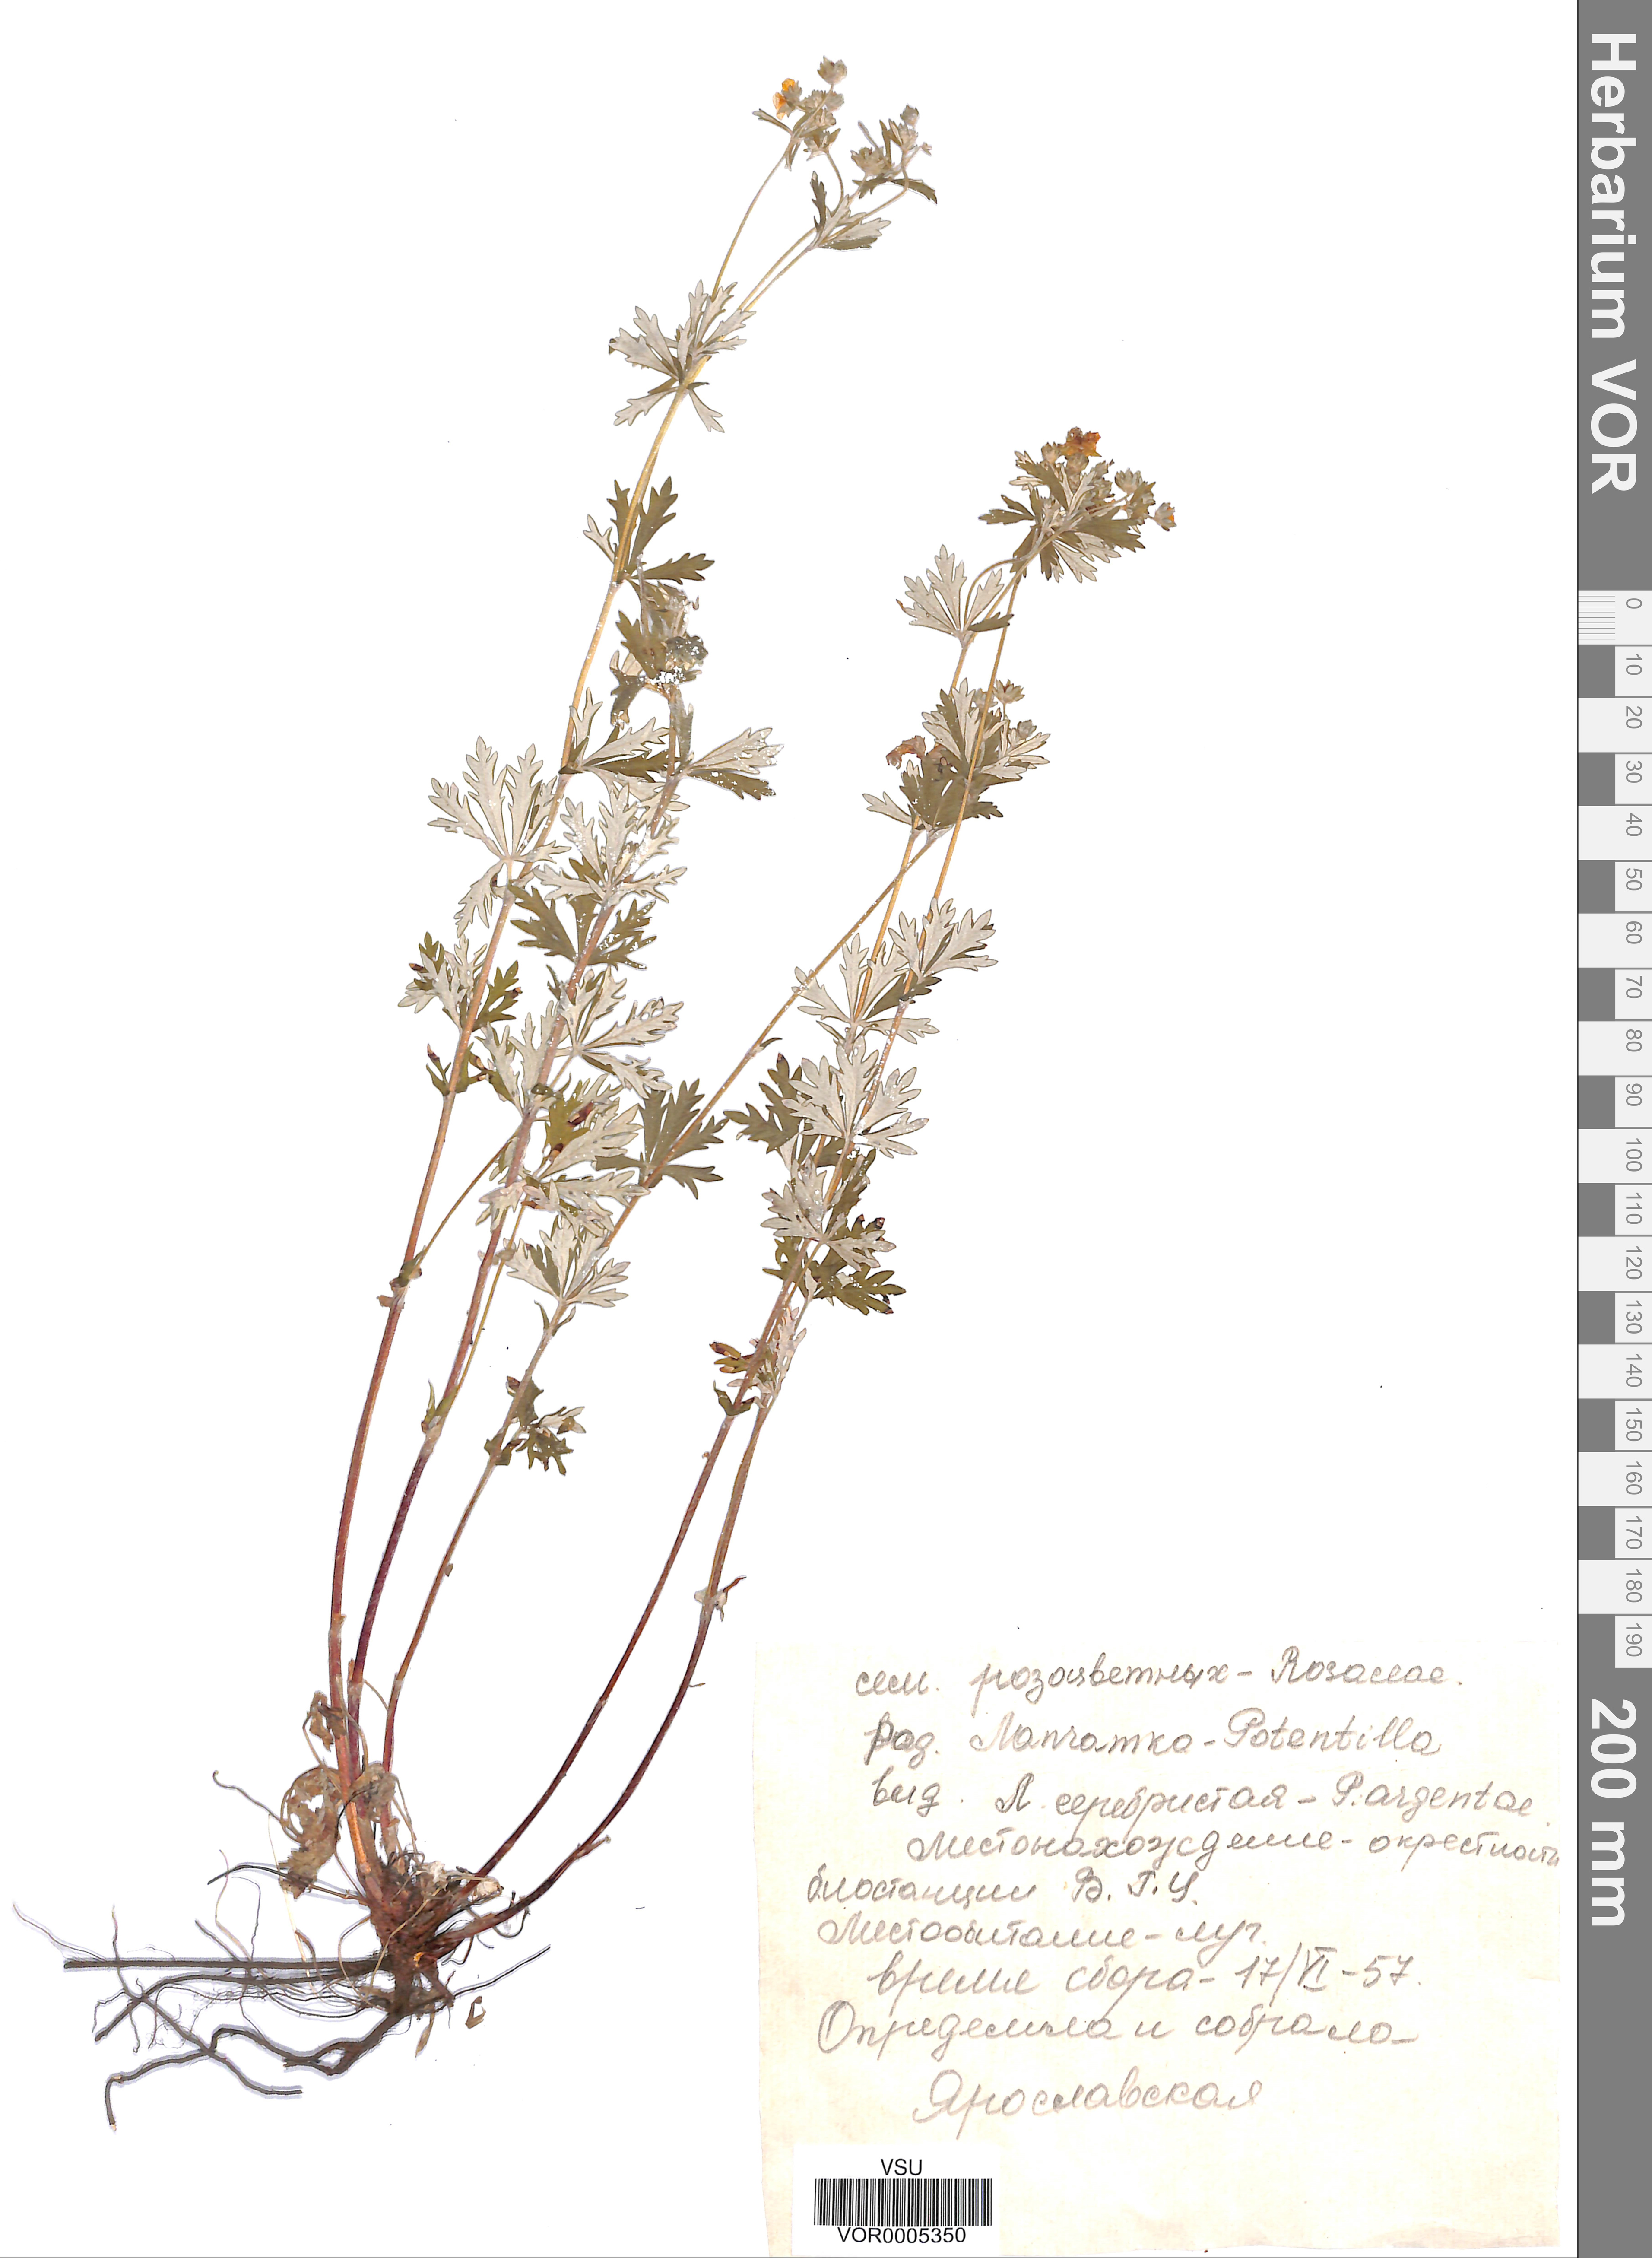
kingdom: Plantae
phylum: Tracheophyta
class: Magnoliopsida
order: Rosales
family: Rosaceae
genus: Potentilla
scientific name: Potentilla argentea
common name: Hoary cinquefoil
